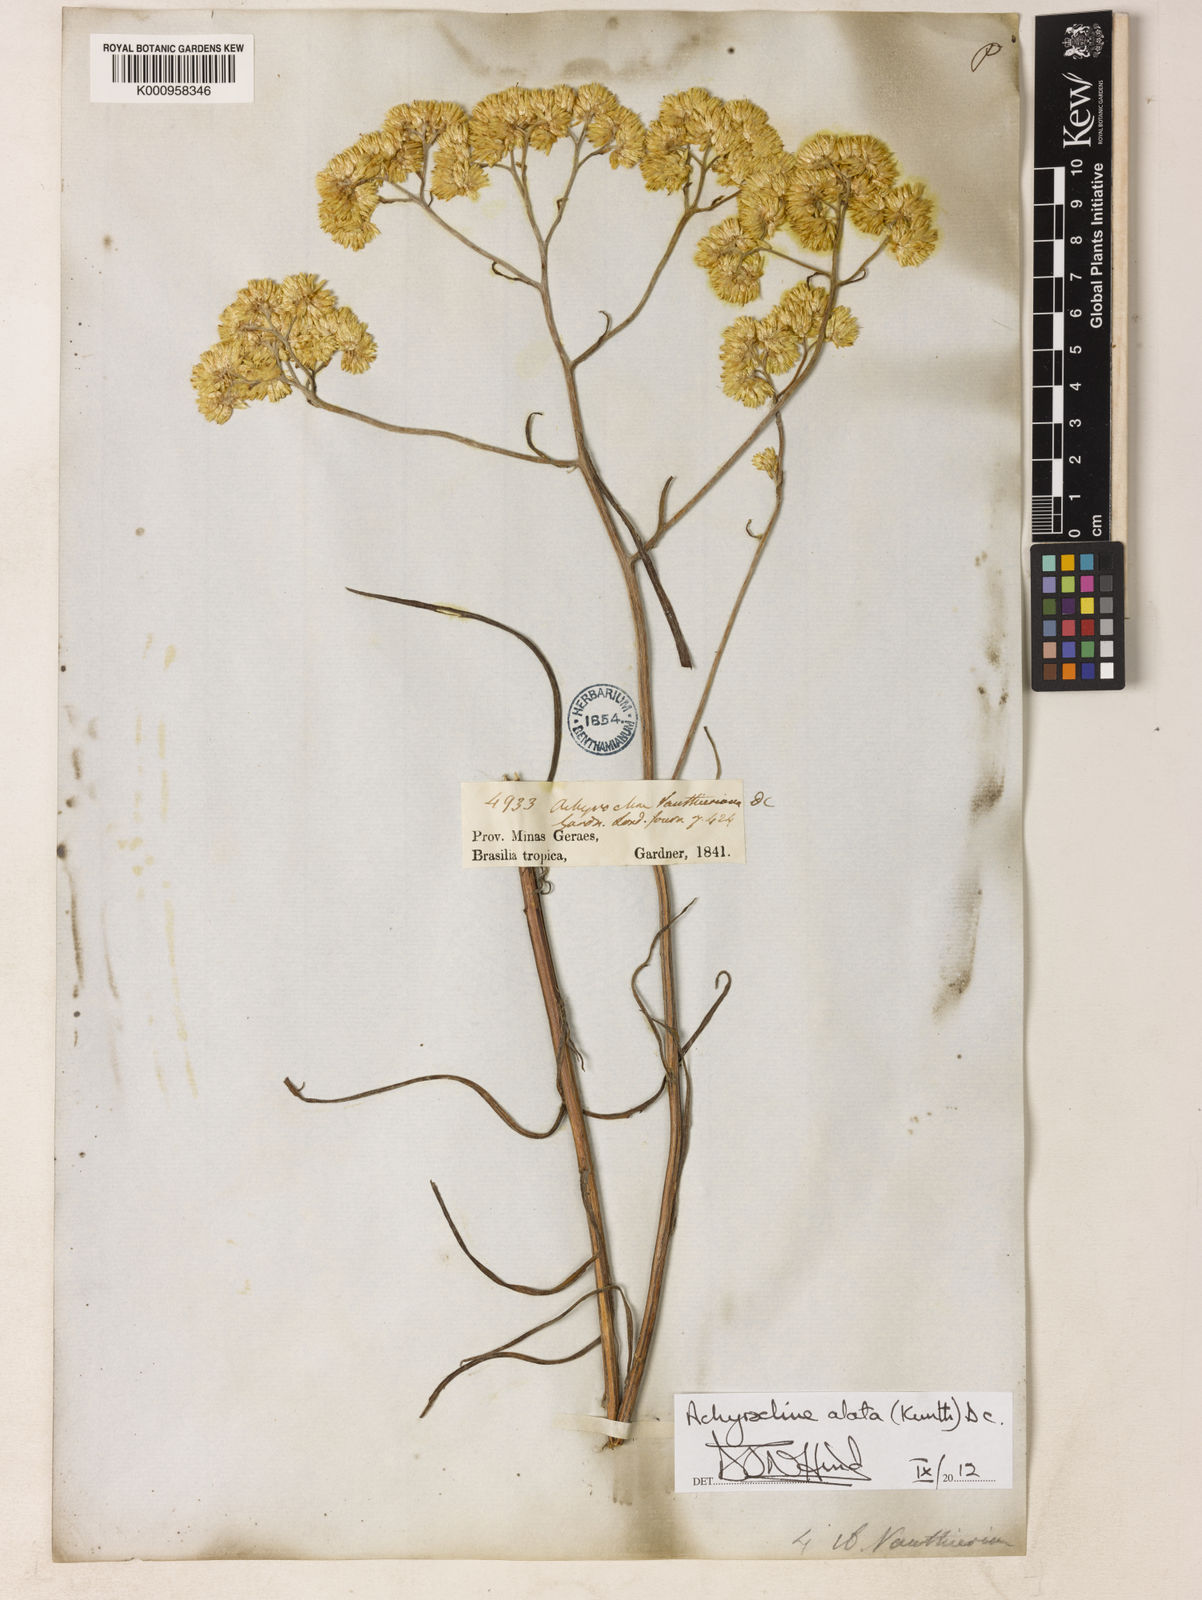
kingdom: Plantae
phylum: Tracheophyta
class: Magnoliopsida
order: Asterales
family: Asteraceae
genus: Achyrocline
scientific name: Achyrocline alata
